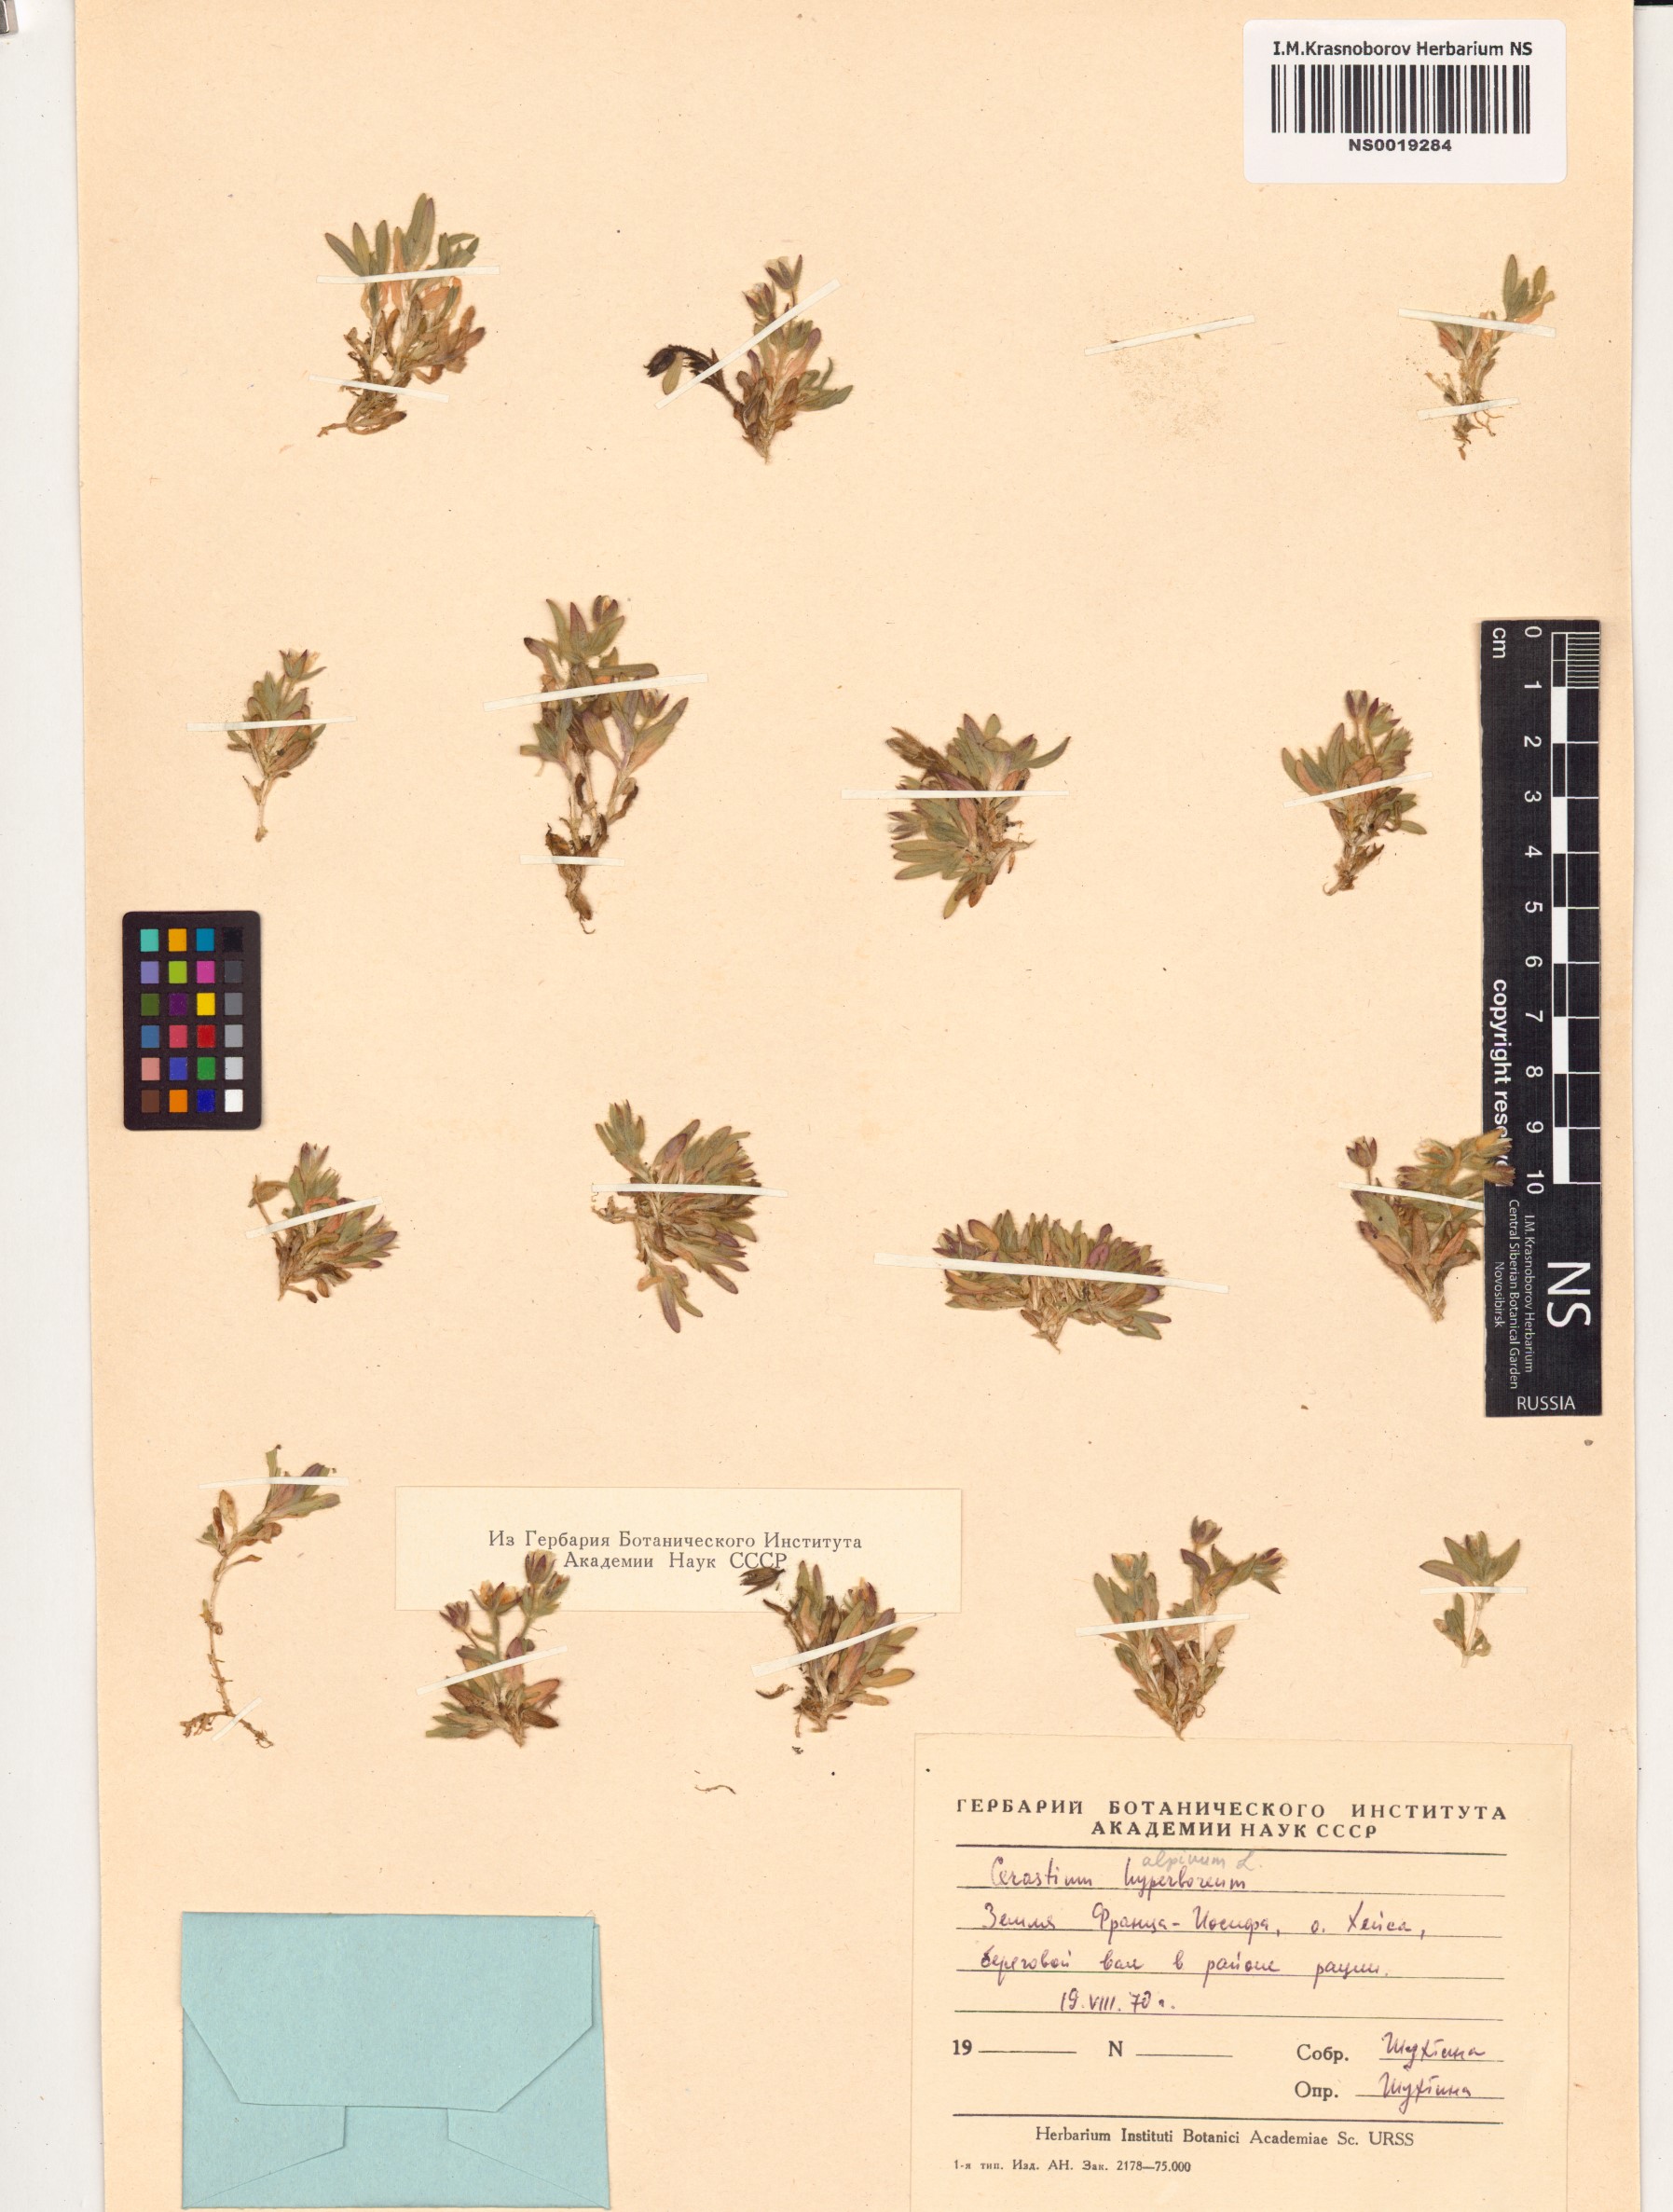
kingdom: Plantae
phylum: Tracheophyta
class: Magnoliopsida
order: Caryophyllales
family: Caryophyllaceae
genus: Cerastium
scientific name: Cerastium alpinum
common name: Alpine mouse-ear
